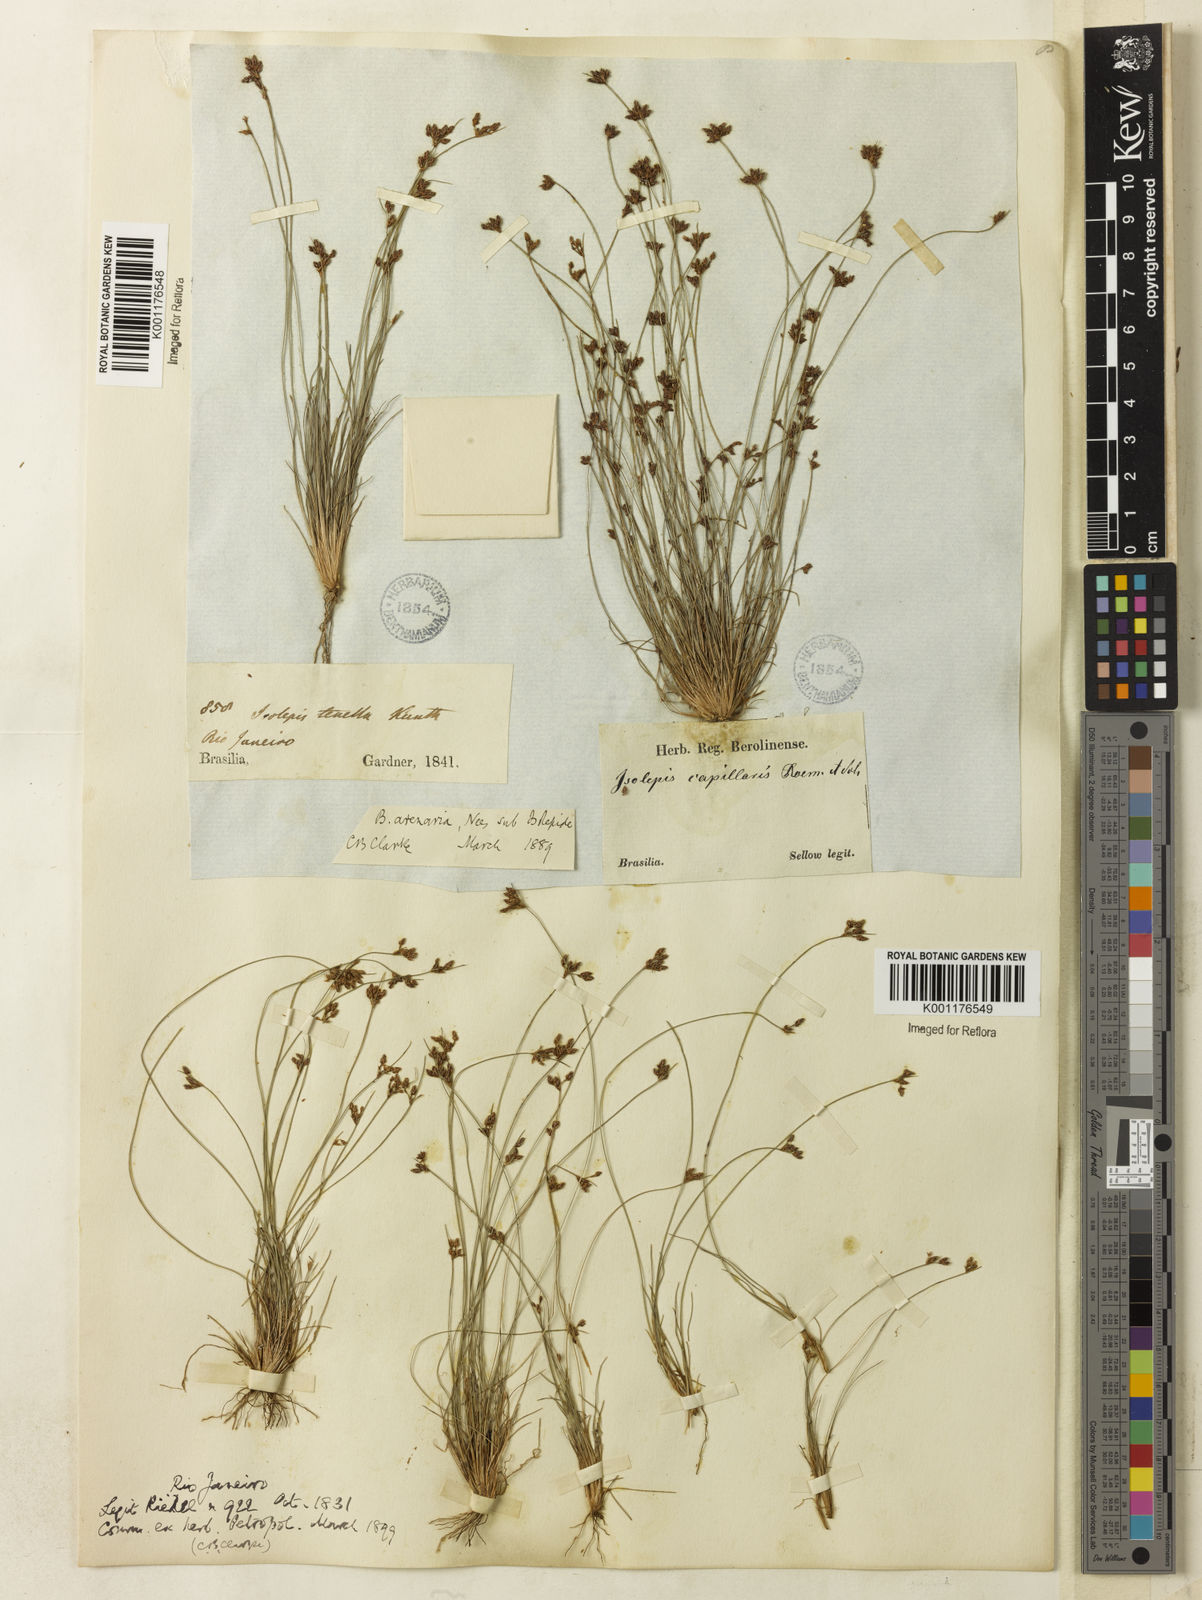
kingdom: Plantae
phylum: Tracheophyta
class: Liliopsida
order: Poales
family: Cyperaceae
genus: Bulbostylis
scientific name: Bulbostylis juncoides
